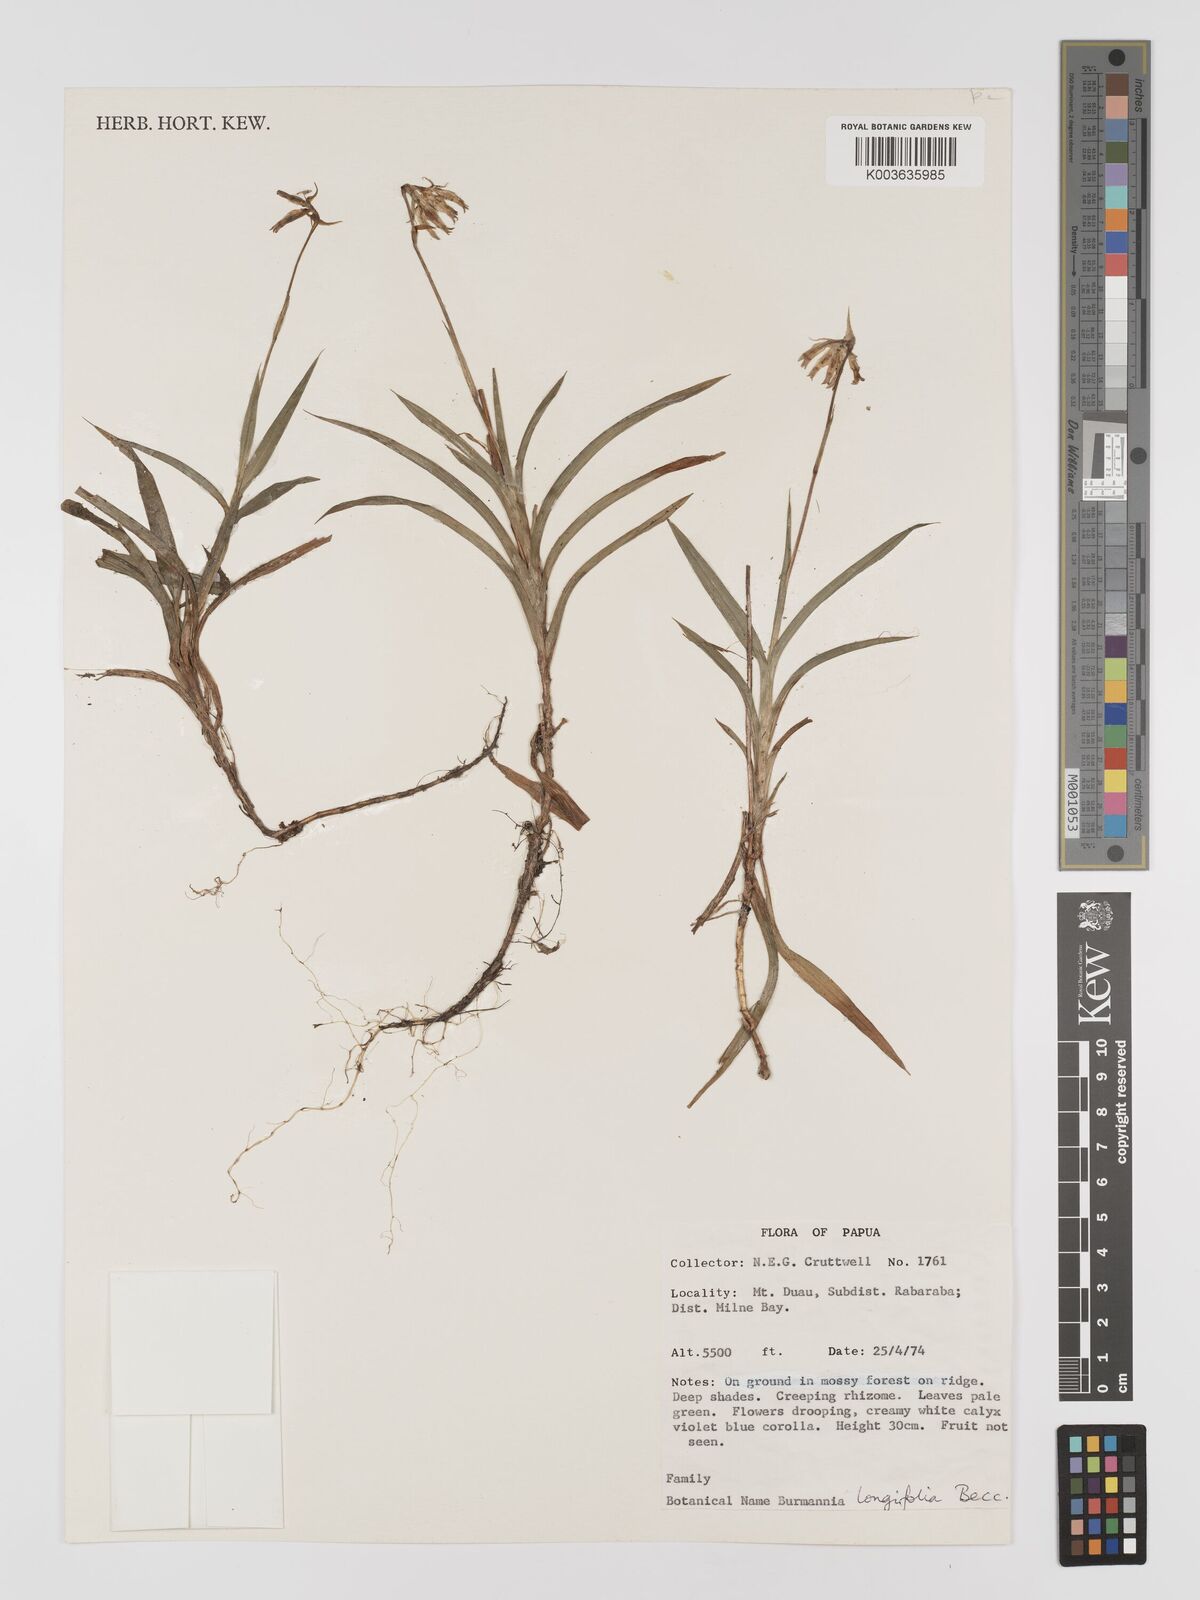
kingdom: Plantae
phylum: Tracheophyta
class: Liliopsida
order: Dioscoreales
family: Burmanniaceae
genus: Burmannia
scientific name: Burmannia longifolia
